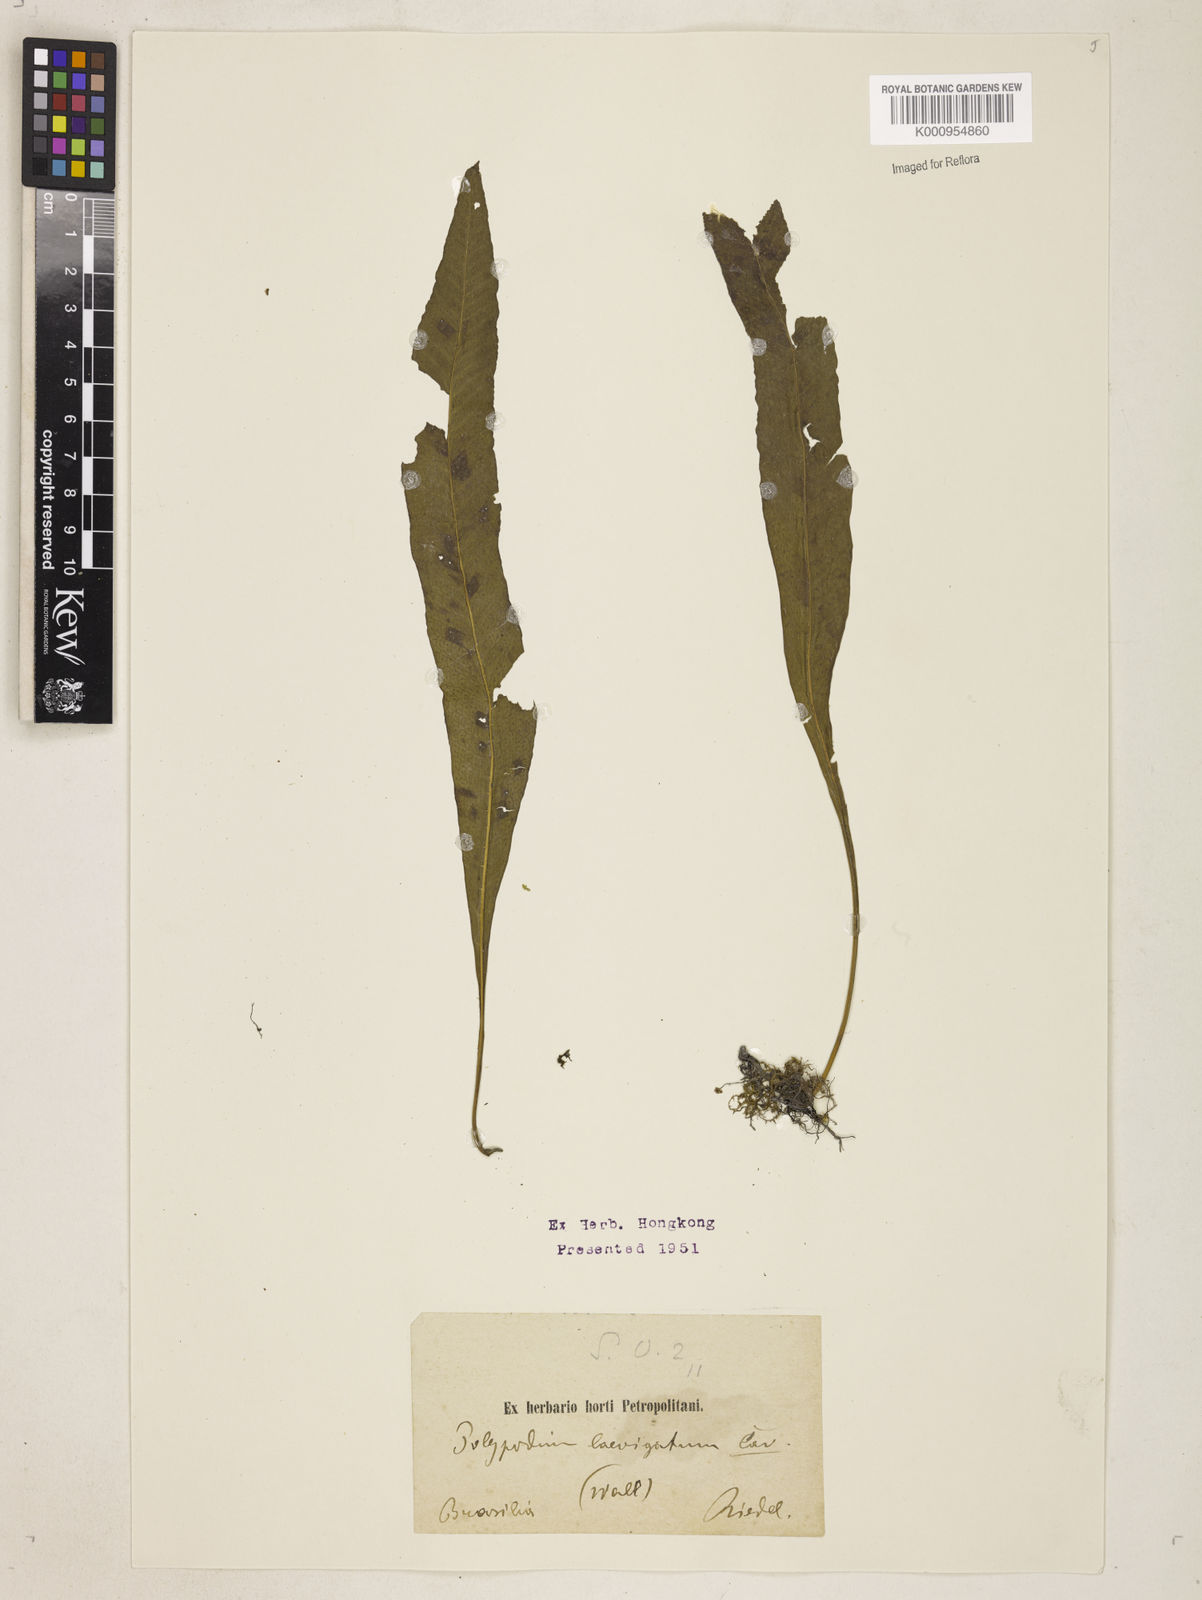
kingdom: Plantae
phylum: Tracheophyta
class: Polypodiopsida
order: Polypodiales
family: Polypodiaceae
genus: Campyloneurum
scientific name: Campyloneurum repens
